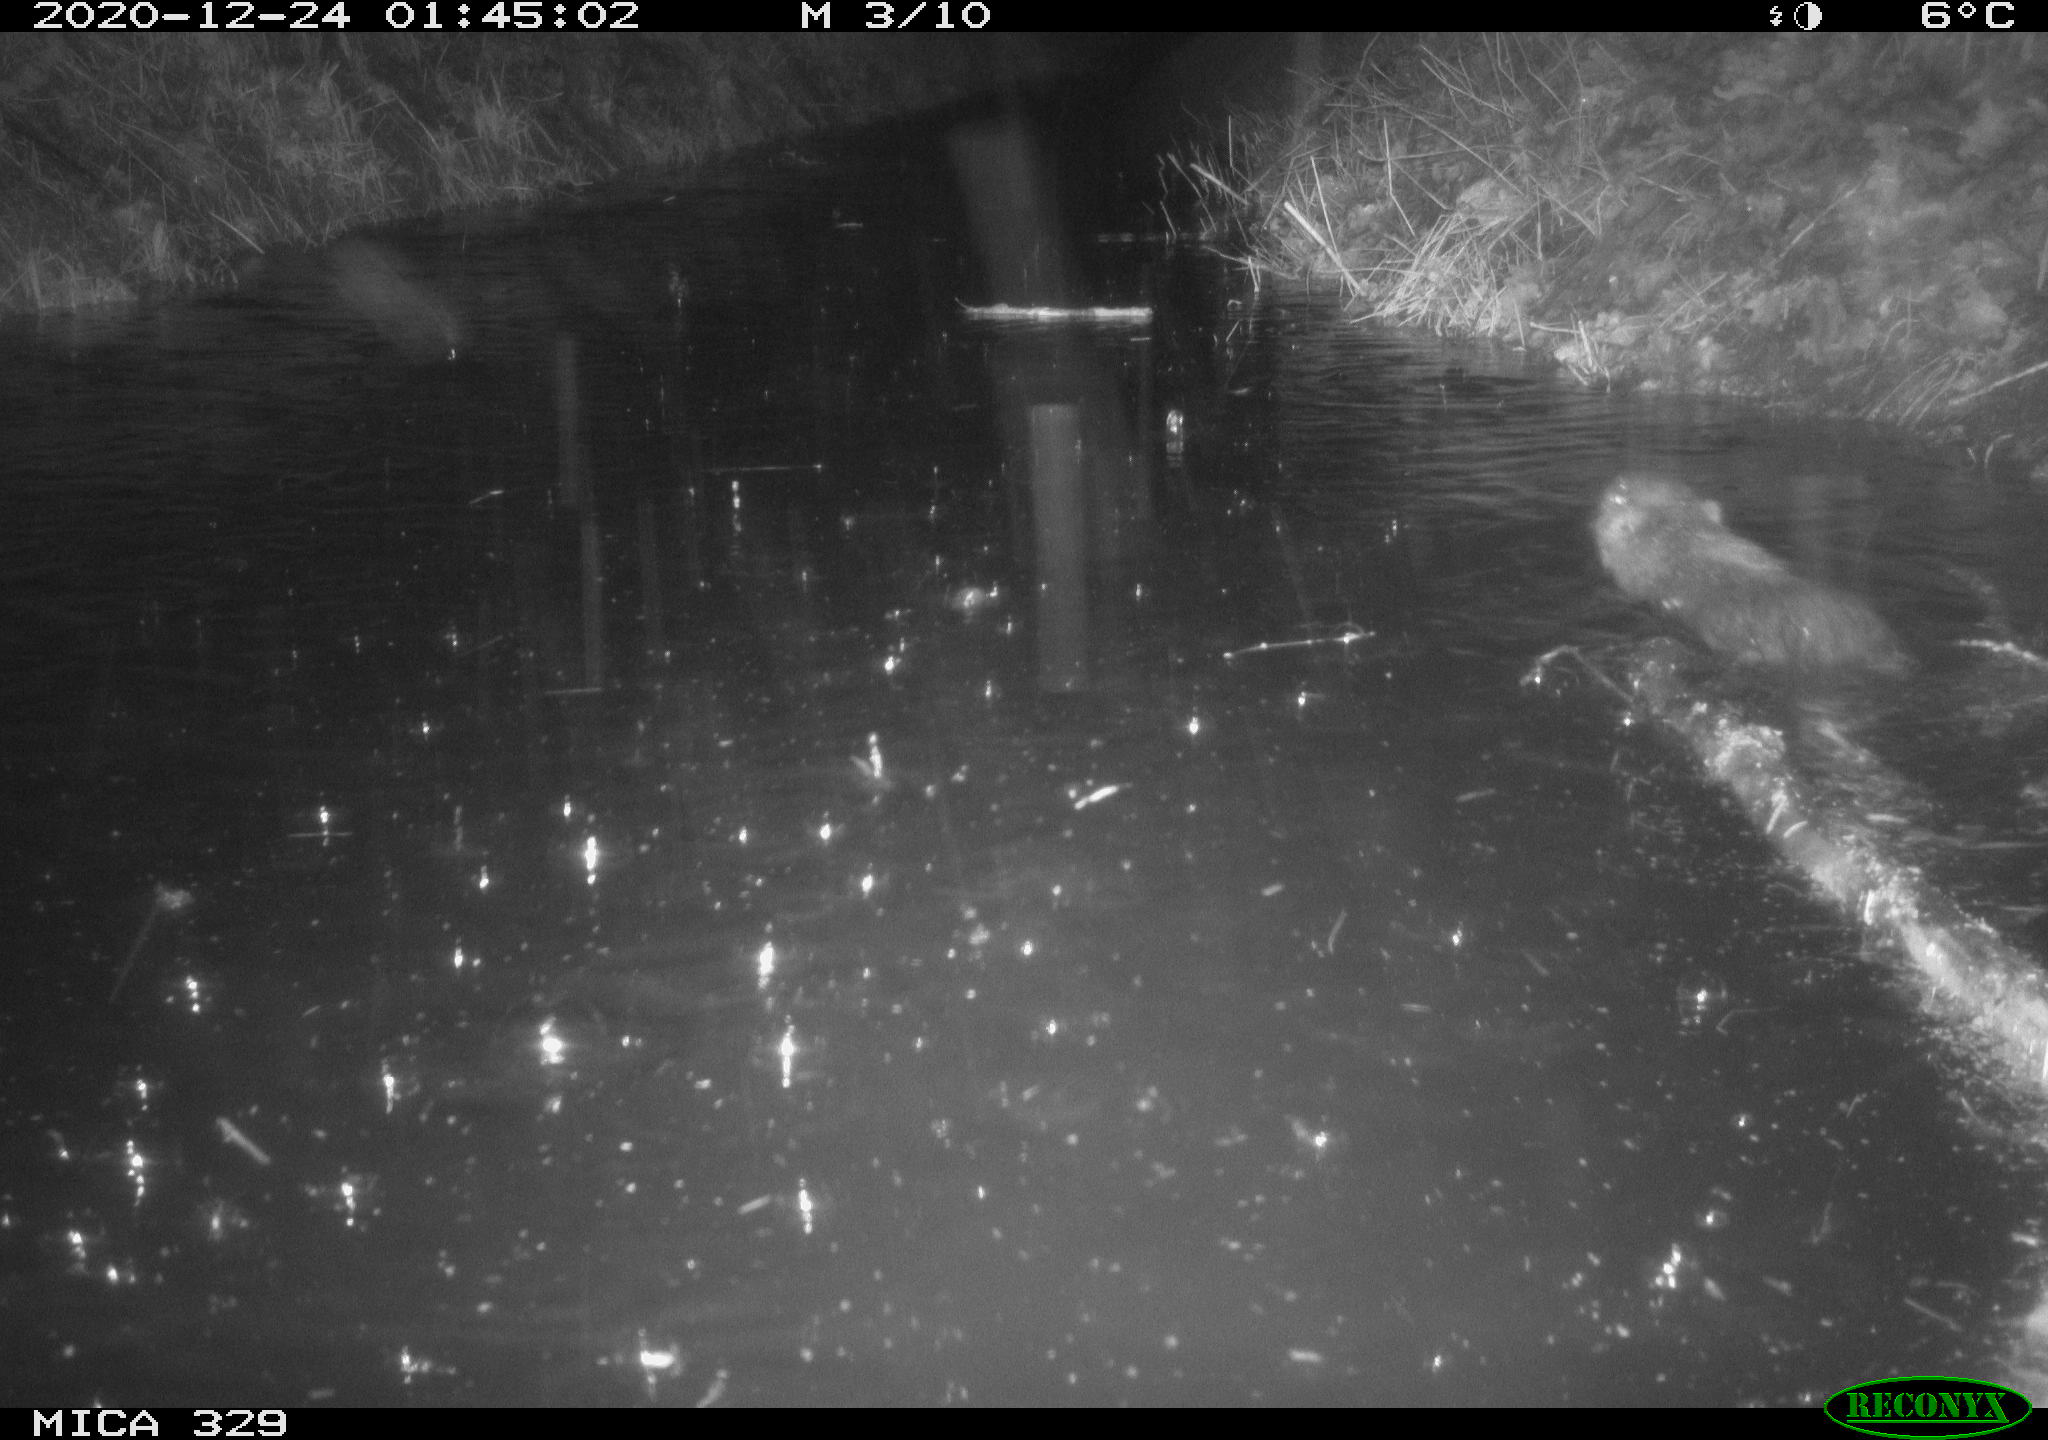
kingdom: Animalia
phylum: Chordata
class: Mammalia
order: Rodentia
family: Cricetidae
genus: Ondatra
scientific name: Ondatra zibethicus
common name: Muskrat
